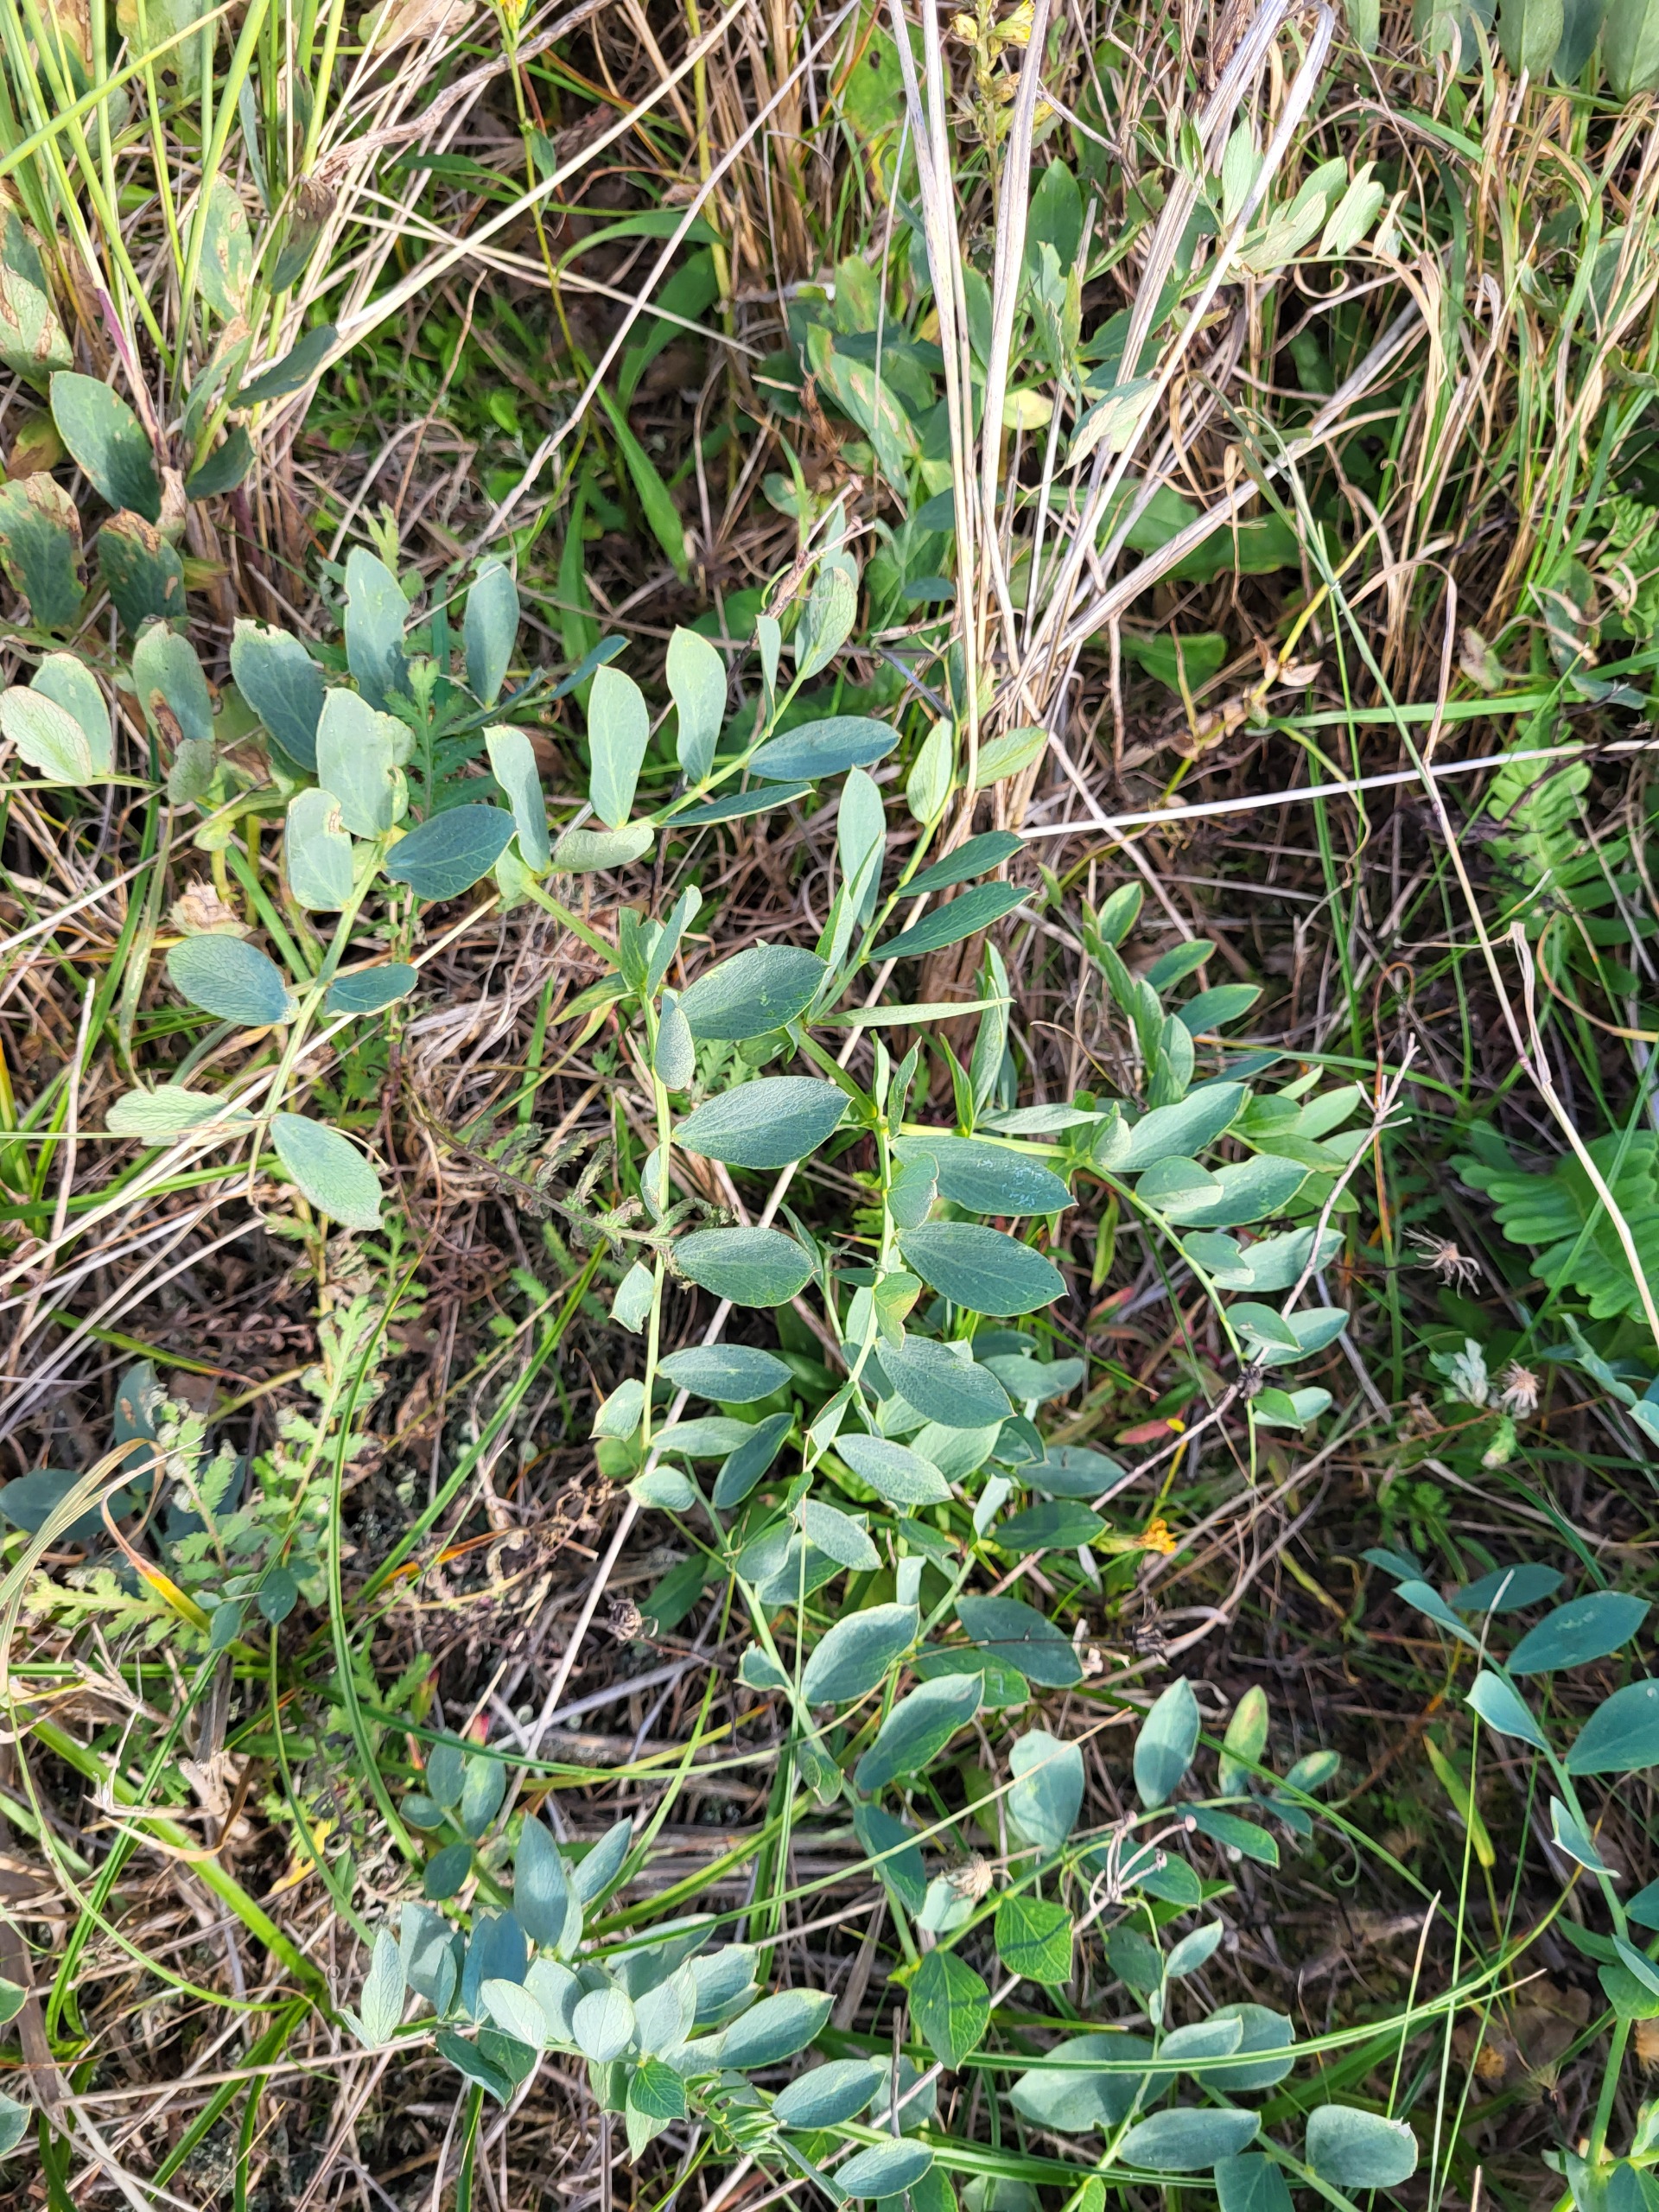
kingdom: Plantae
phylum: Tracheophyta
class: Magnoliopsida
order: Fabales
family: Fabaceae
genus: Lathyrus
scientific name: Lathyrus japonicus
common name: Strand-fladbælg
